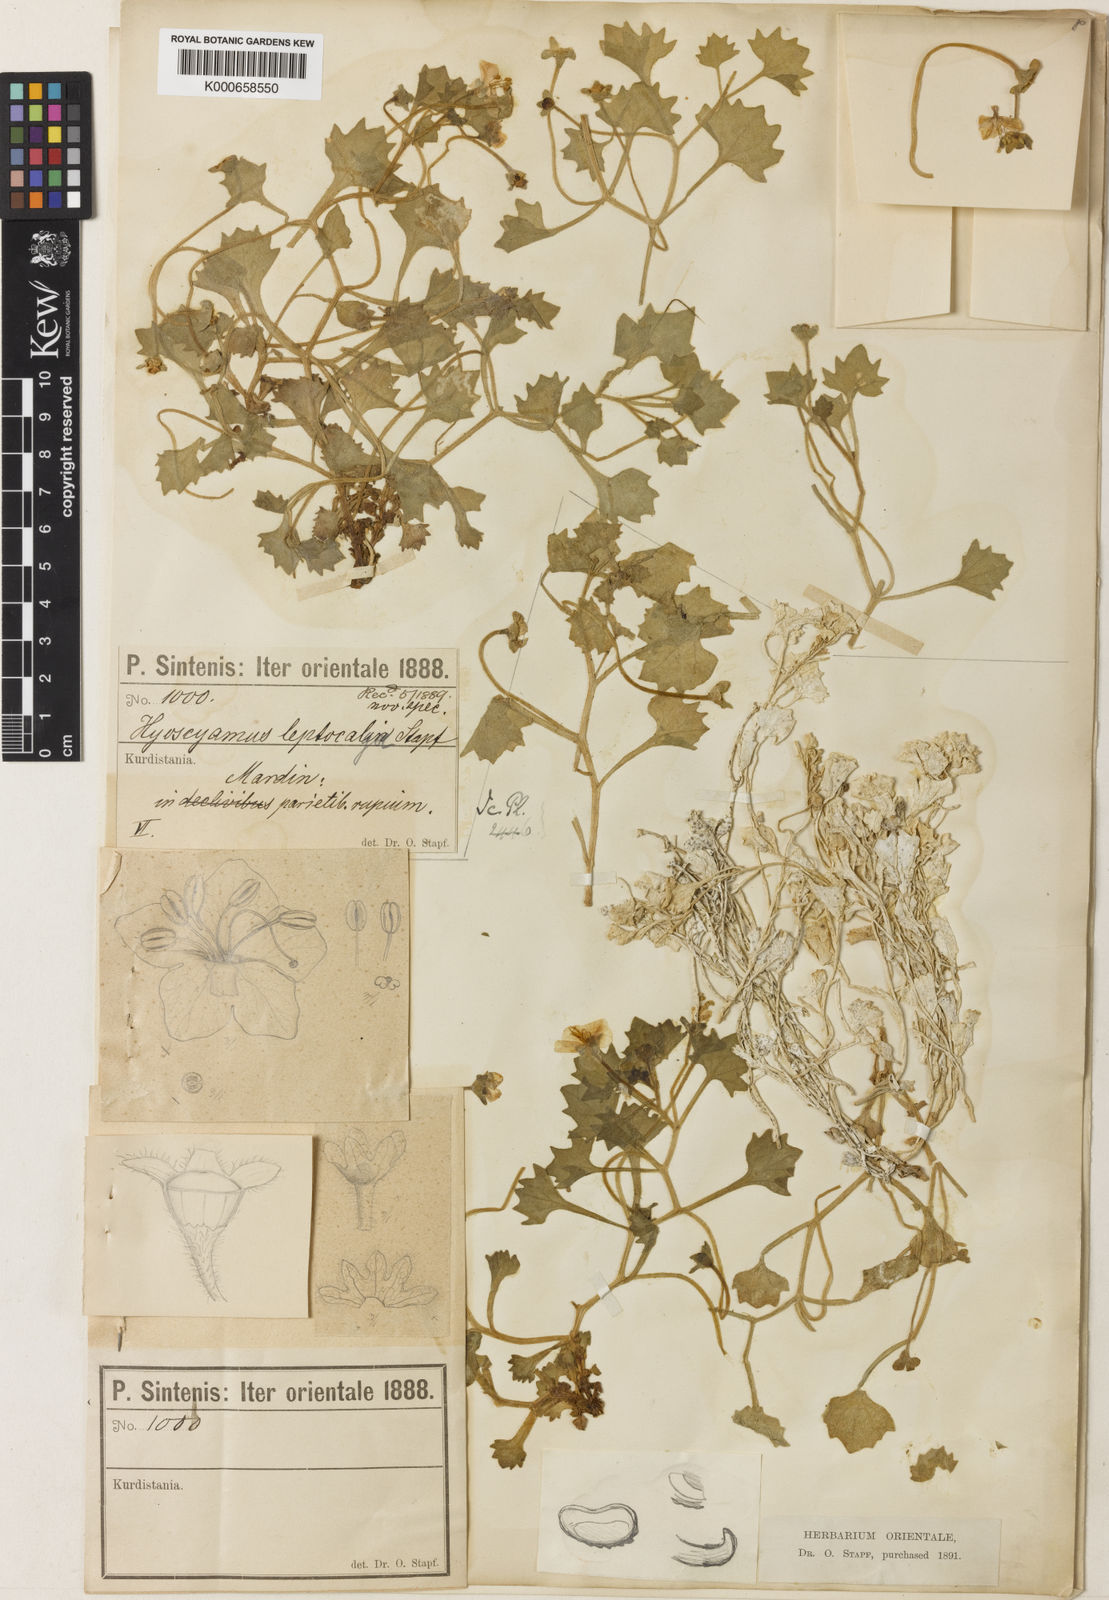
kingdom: Plantae
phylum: Tracheophyta
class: Magnoliopsida
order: Solanales
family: Solanaceae
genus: Hyoscyamus
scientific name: Hyoscyamus leptocalyx
